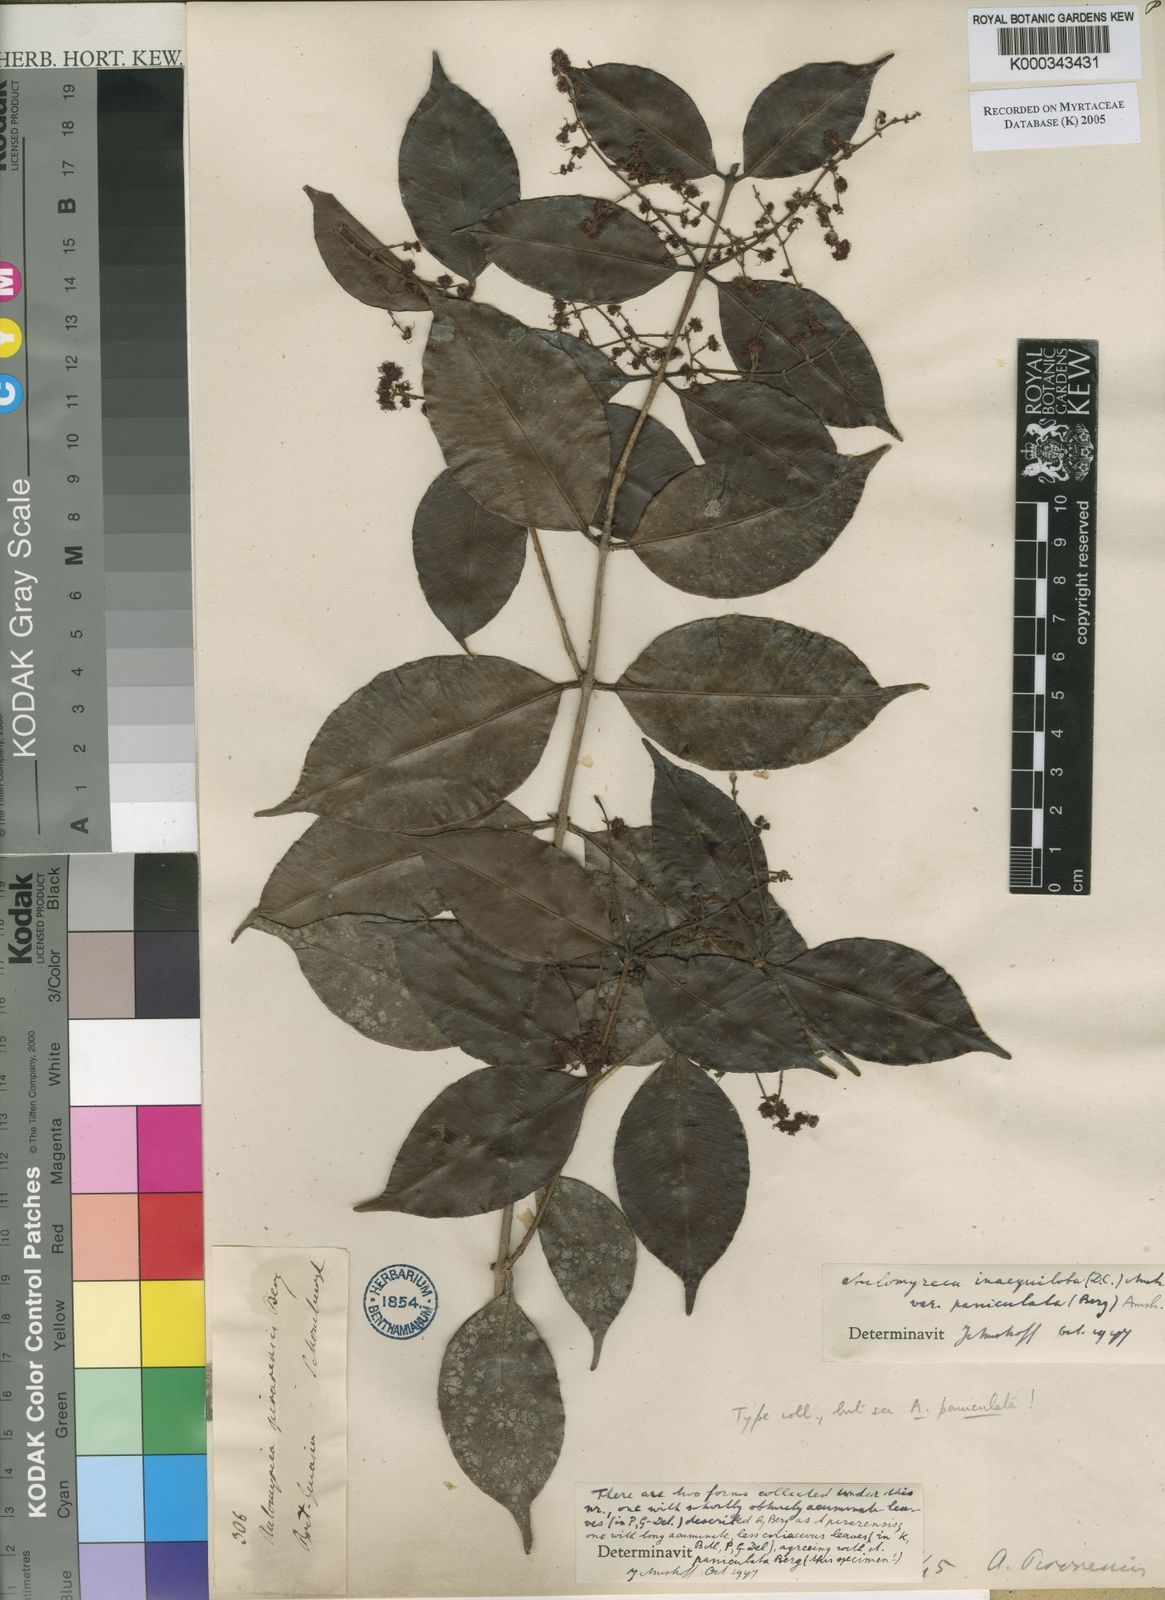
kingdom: Plantae
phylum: Tracheophyta
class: Magnoliopsida
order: Myrtales
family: Myrtaceae
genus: Myrcia
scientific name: Myrcia
